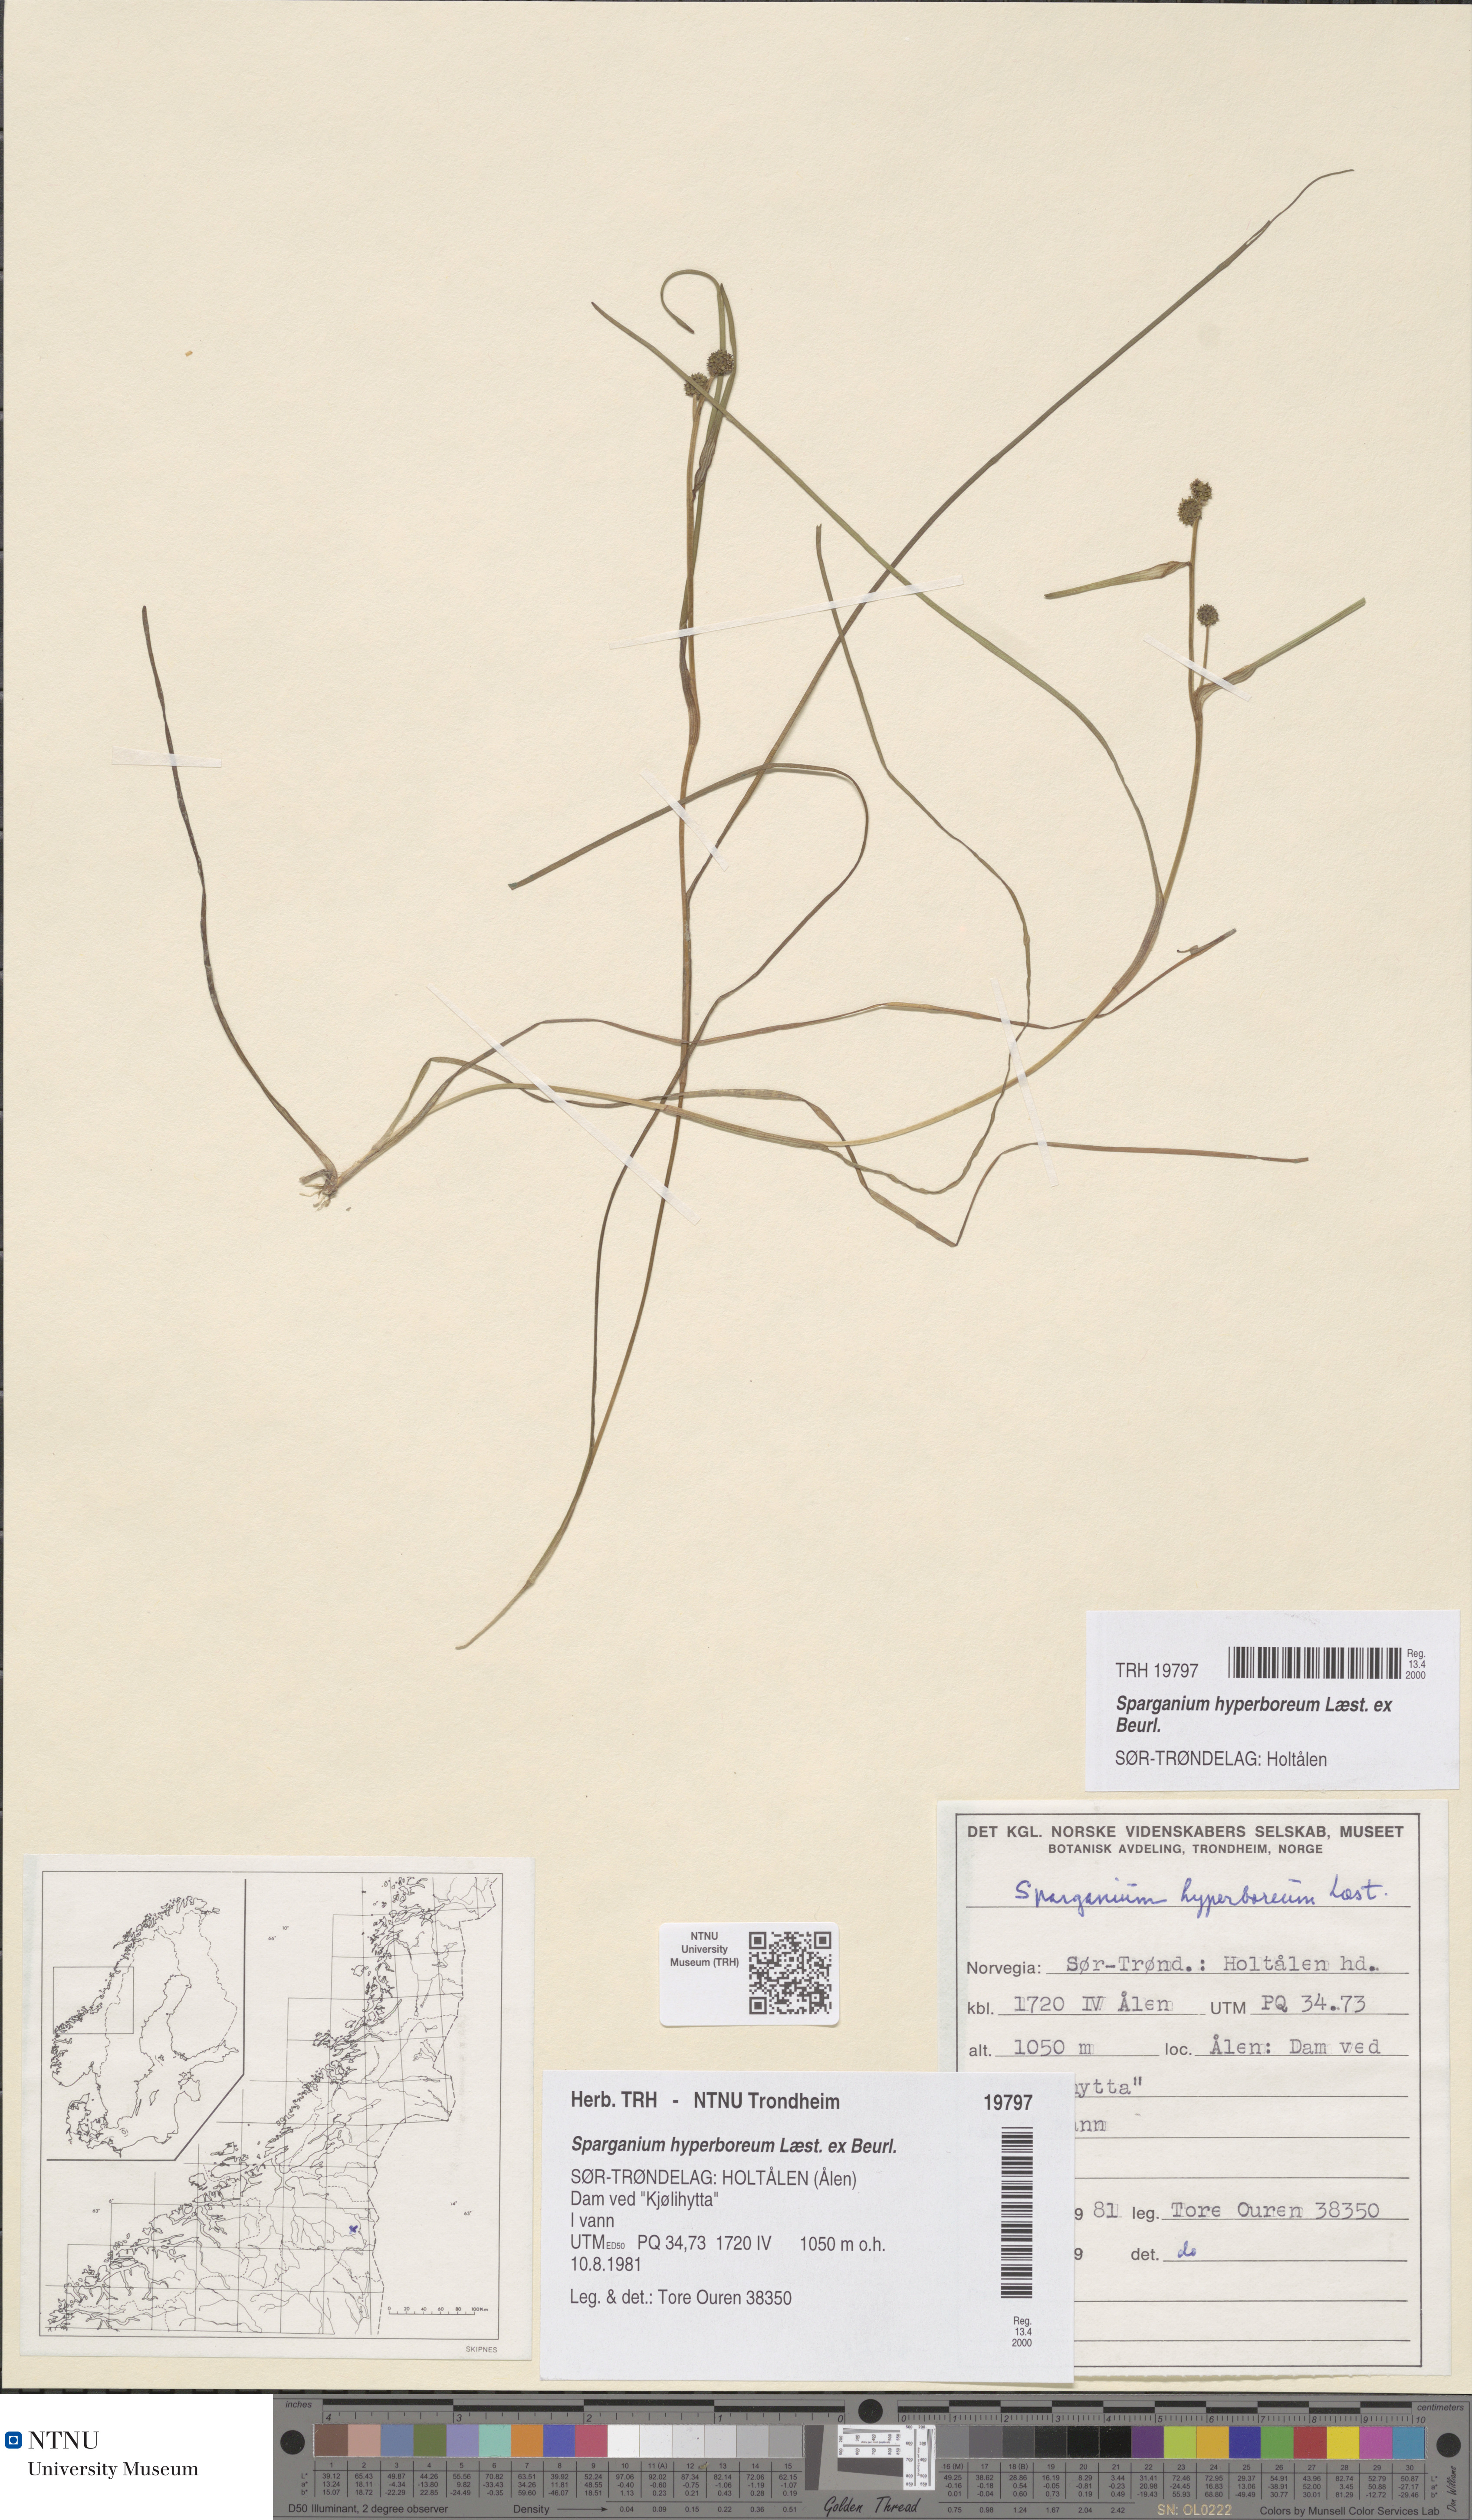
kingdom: Plantae
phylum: Tracheophyta
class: Liliopsida
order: Poales
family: Typhaceae
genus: Sparganium
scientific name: Sparganium hyperboreum
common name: Arctic burreed
